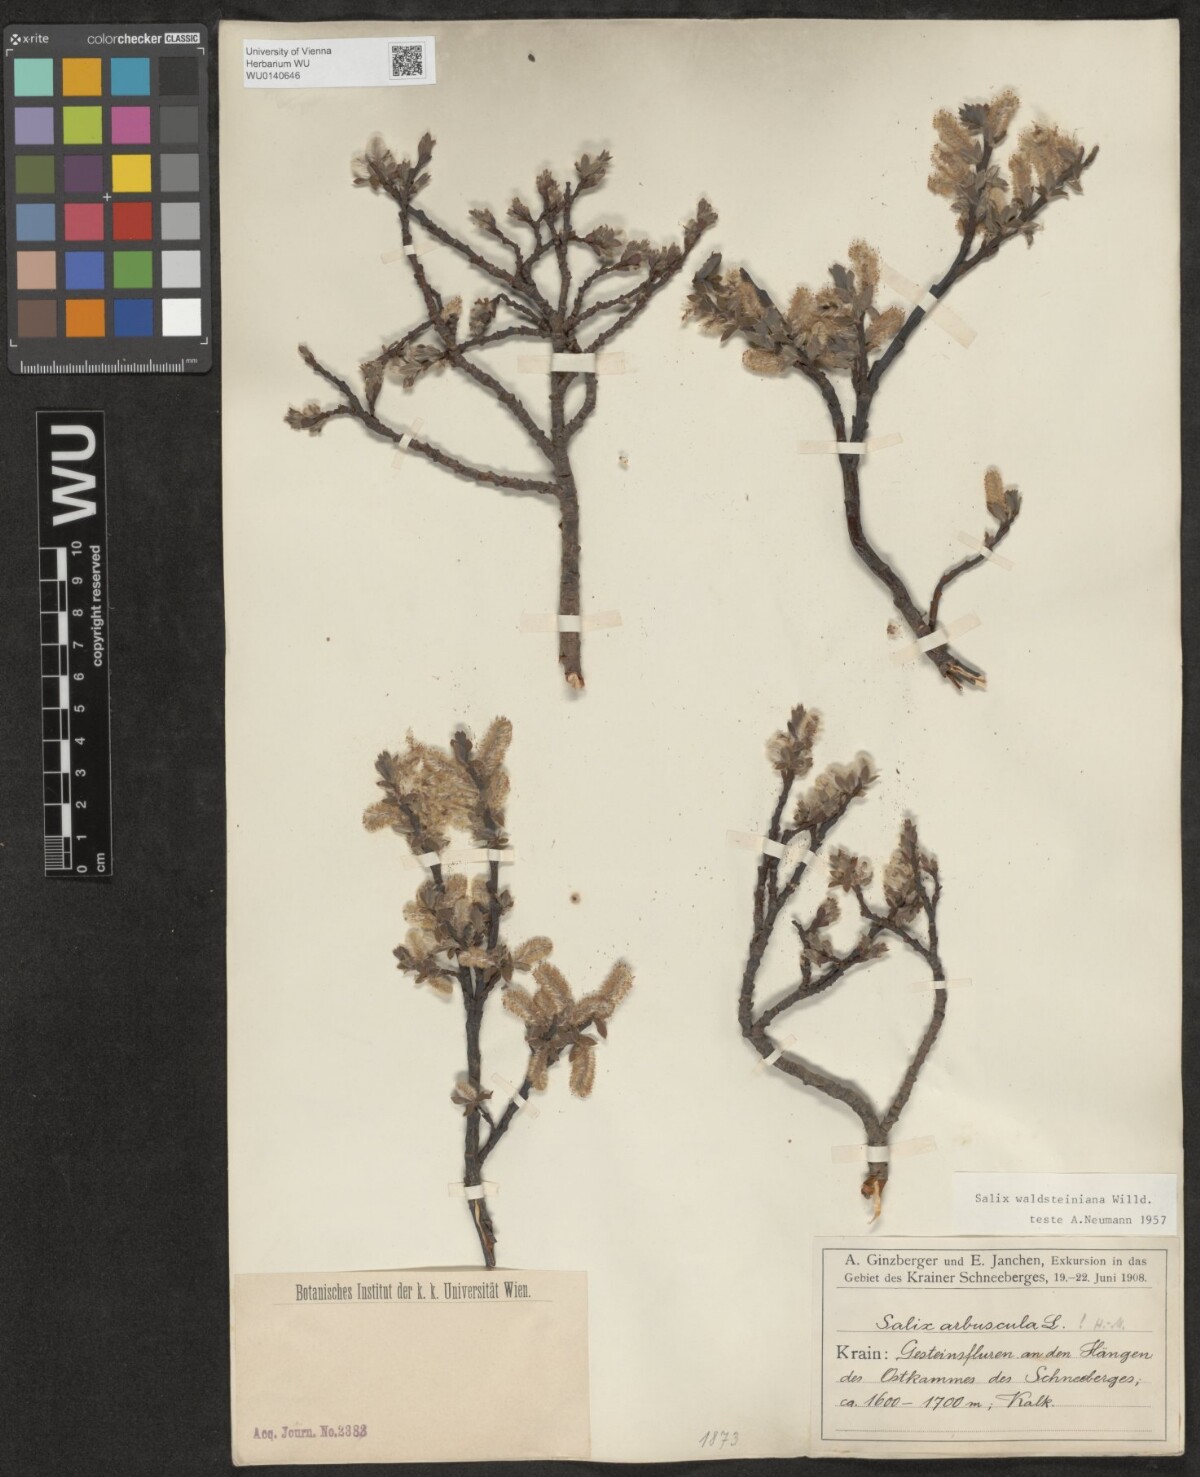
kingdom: Plantae
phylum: Tracheophyta
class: Magnoliopsida
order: Malpighiales
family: Salicaceae
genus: Salix
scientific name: Salix waldsteiniana
